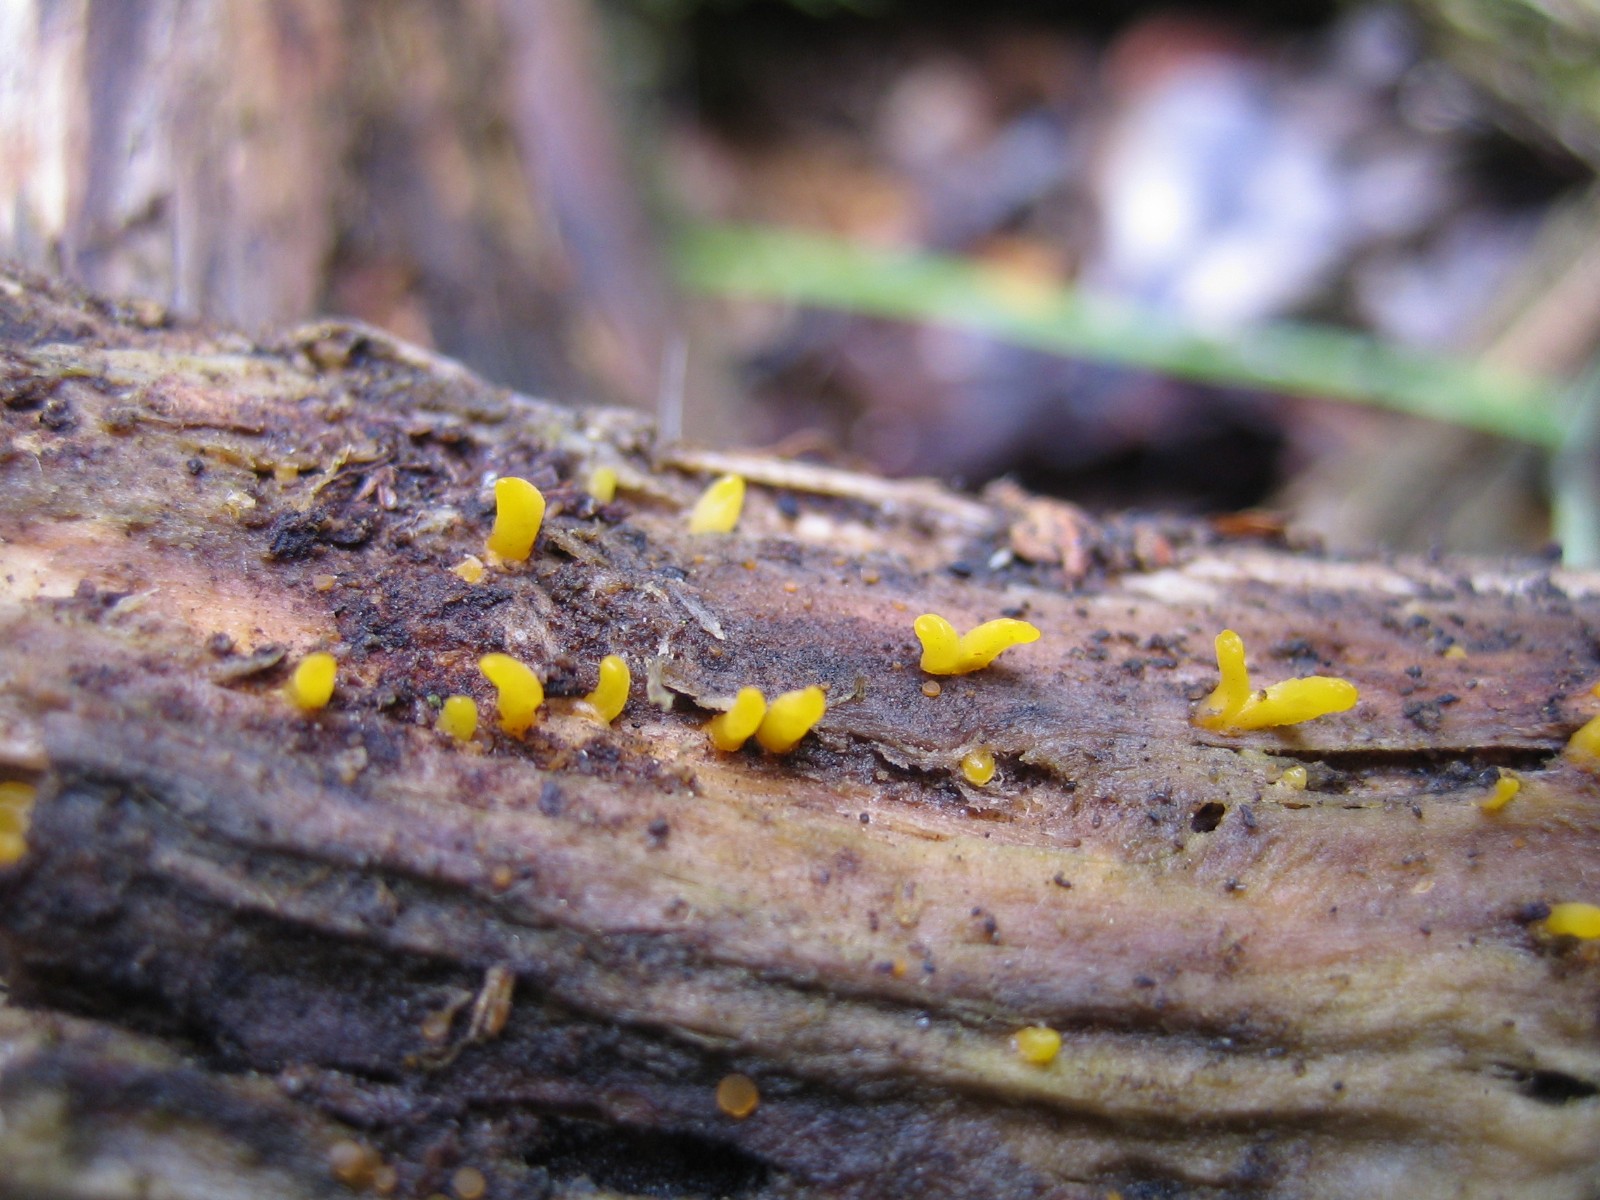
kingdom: Fungi
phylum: Basidiomycota
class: Dacrymycetes
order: Dacrymycetales
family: Dacrymycetaceae
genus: Calocera
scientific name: Calocera cornea
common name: liden guldgaffel
